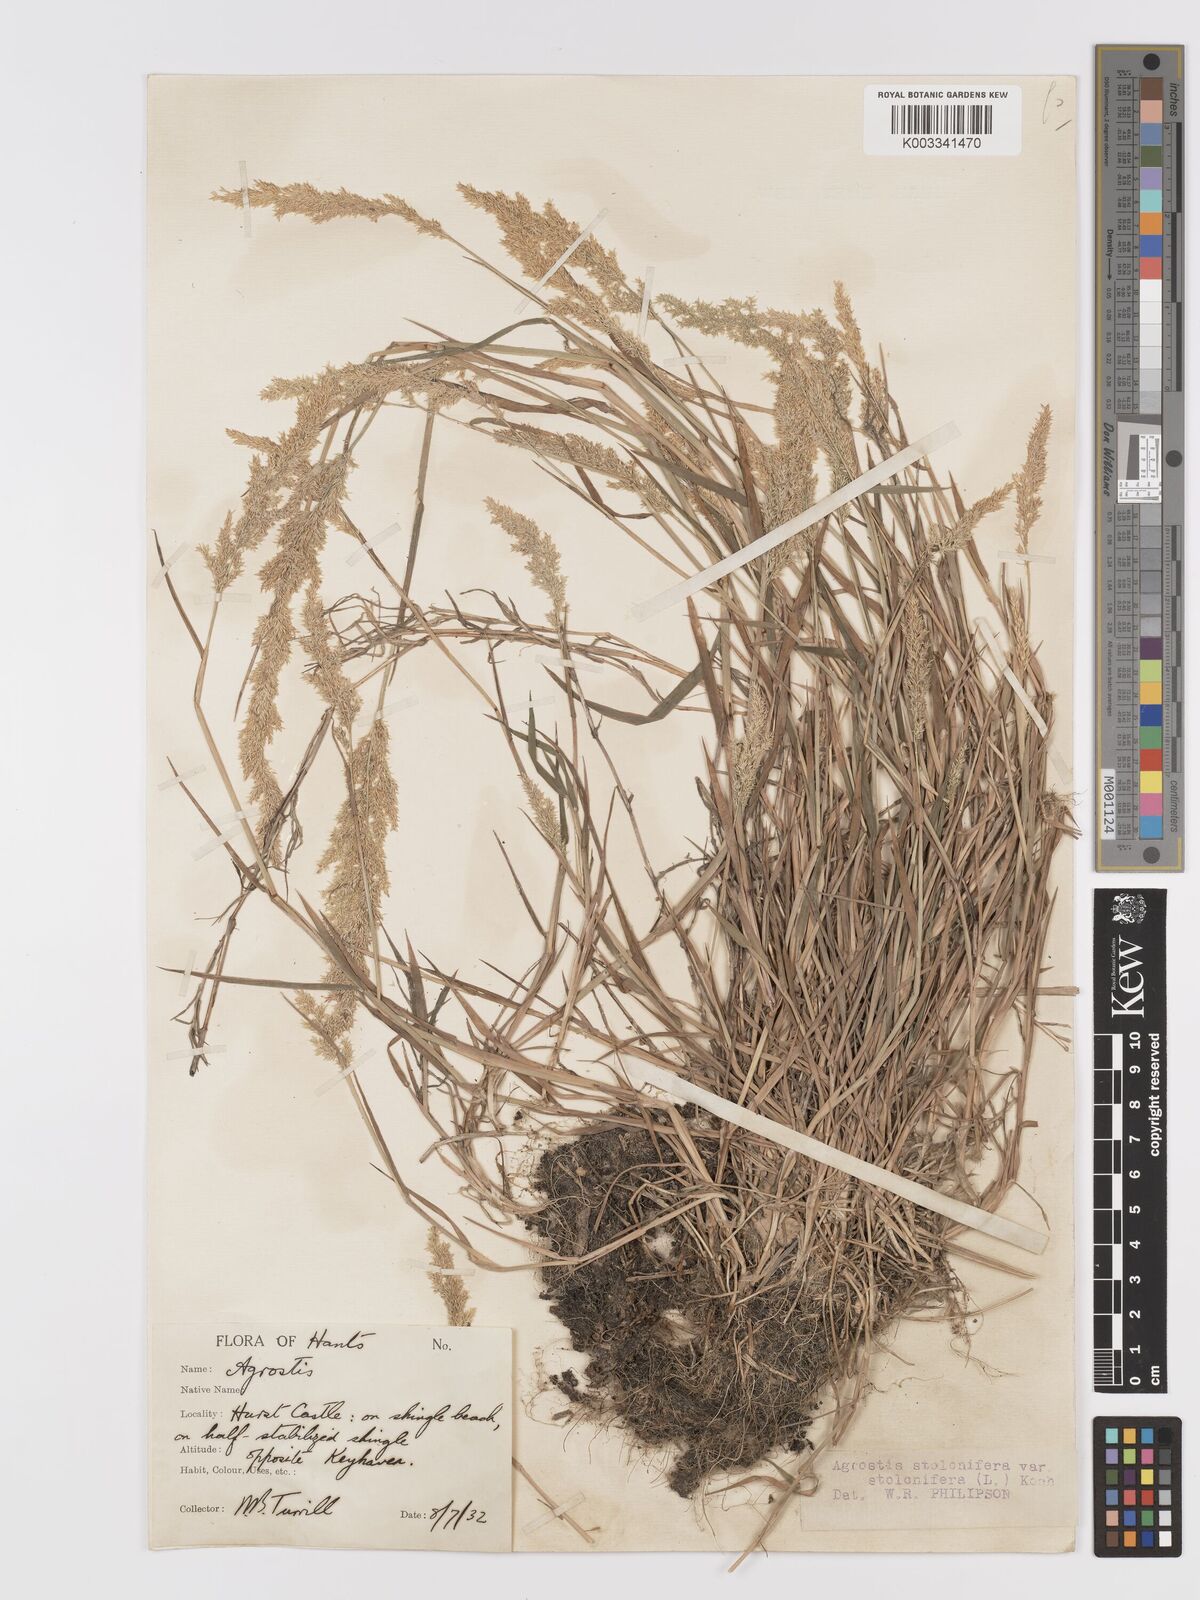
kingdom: Plantae
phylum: Tracheophyta
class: Liliopsida
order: Poales
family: Poaceae
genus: Agrostis
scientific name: Agrostis stolonifera
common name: Creeping bentgrass
